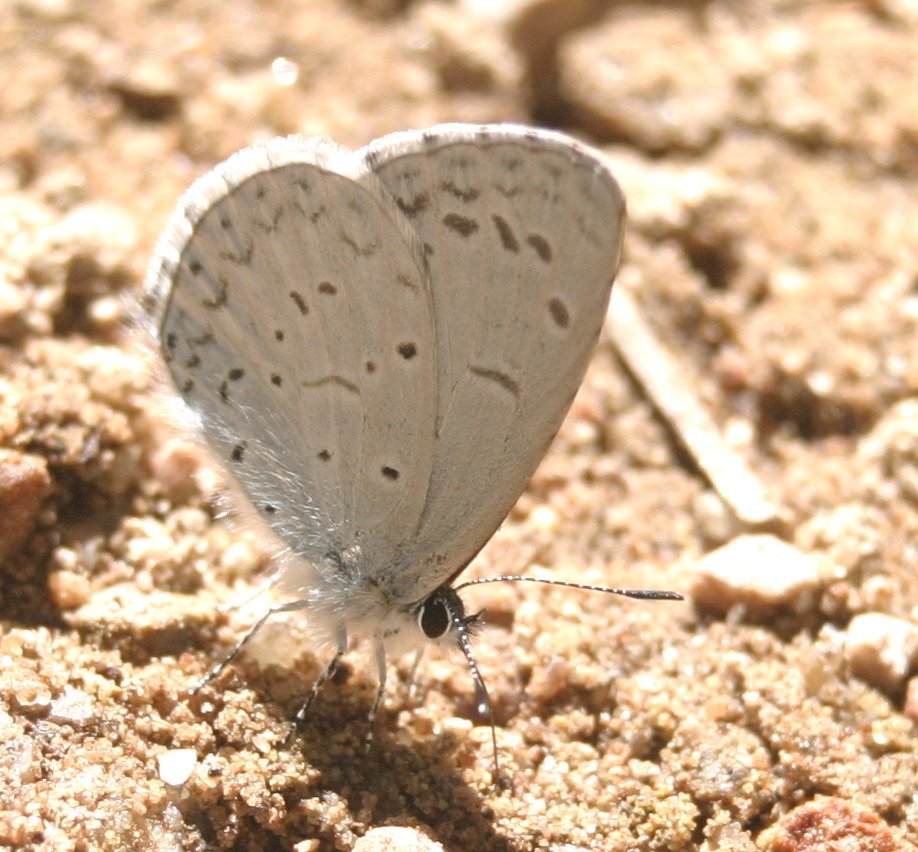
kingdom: Animalia
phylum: Arthropoda
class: Insecta
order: Lepidoptera
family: Lycaenidae
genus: Celastrina
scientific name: Celastrina ladon
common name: Echo Azure
